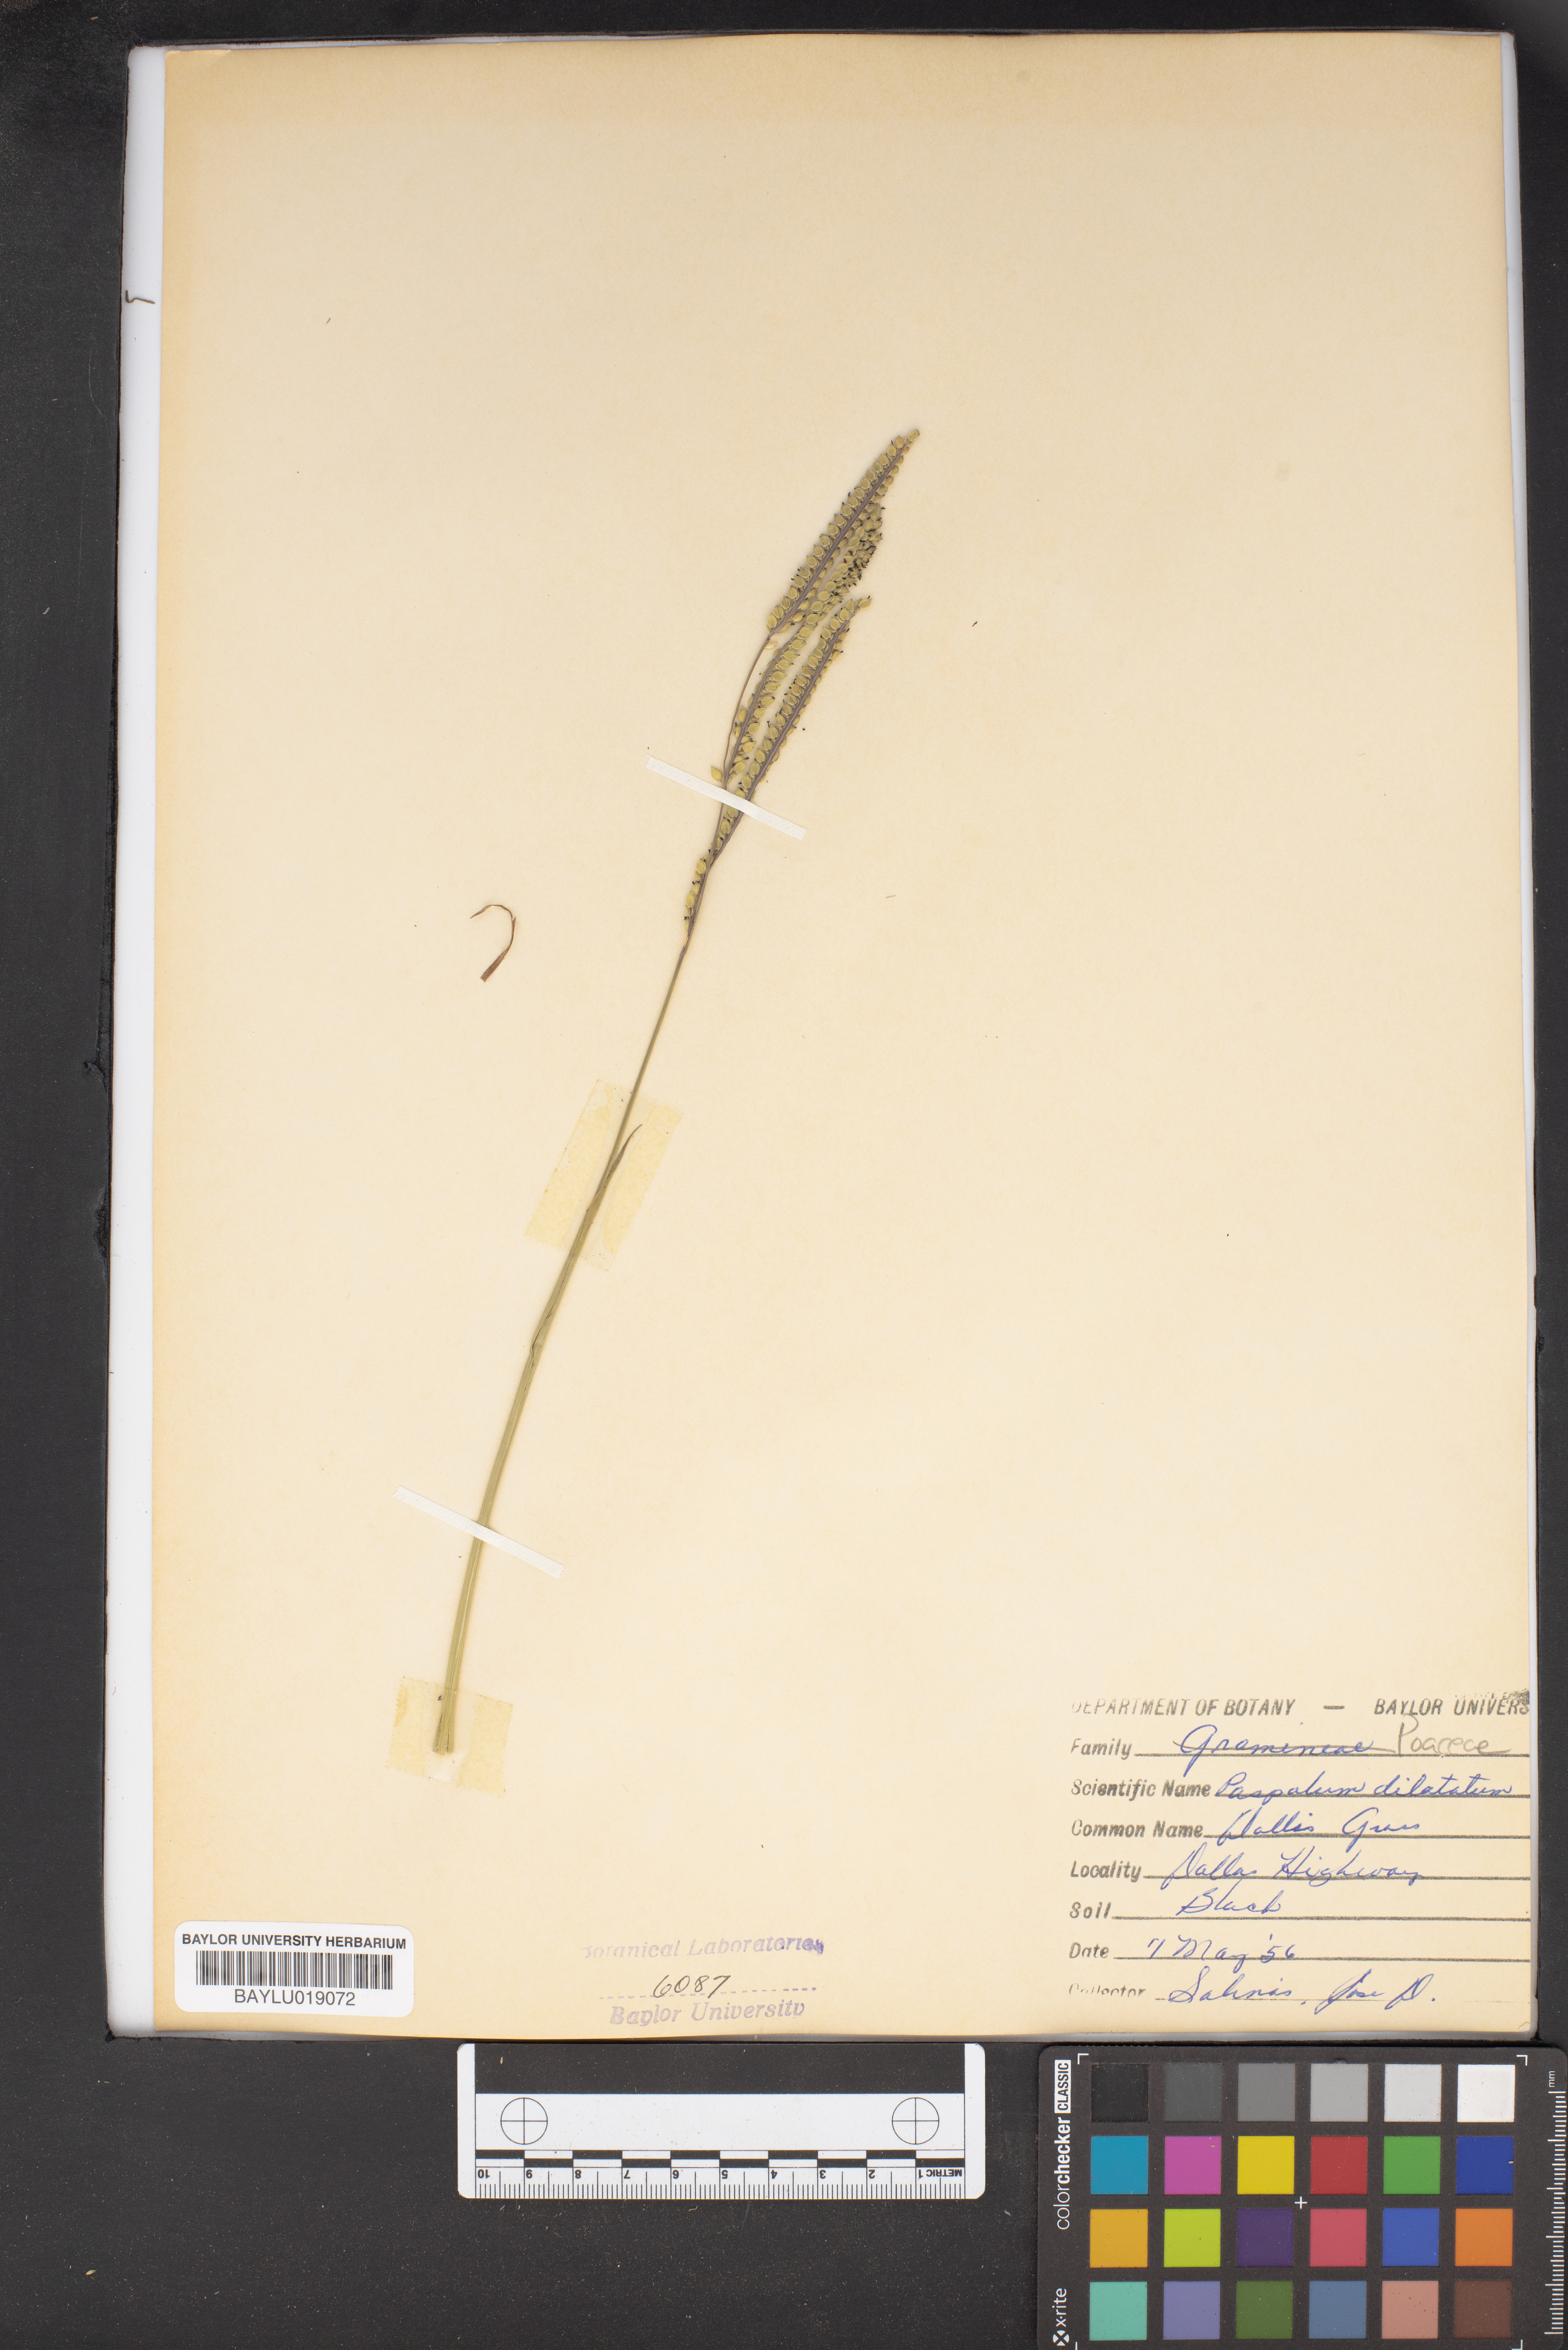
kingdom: Plantae
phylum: Tracheophyta
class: Liliopsida
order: Poales
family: Poaceae
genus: Paspalum
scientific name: Paspalum dilatatum
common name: Dallisgrass
